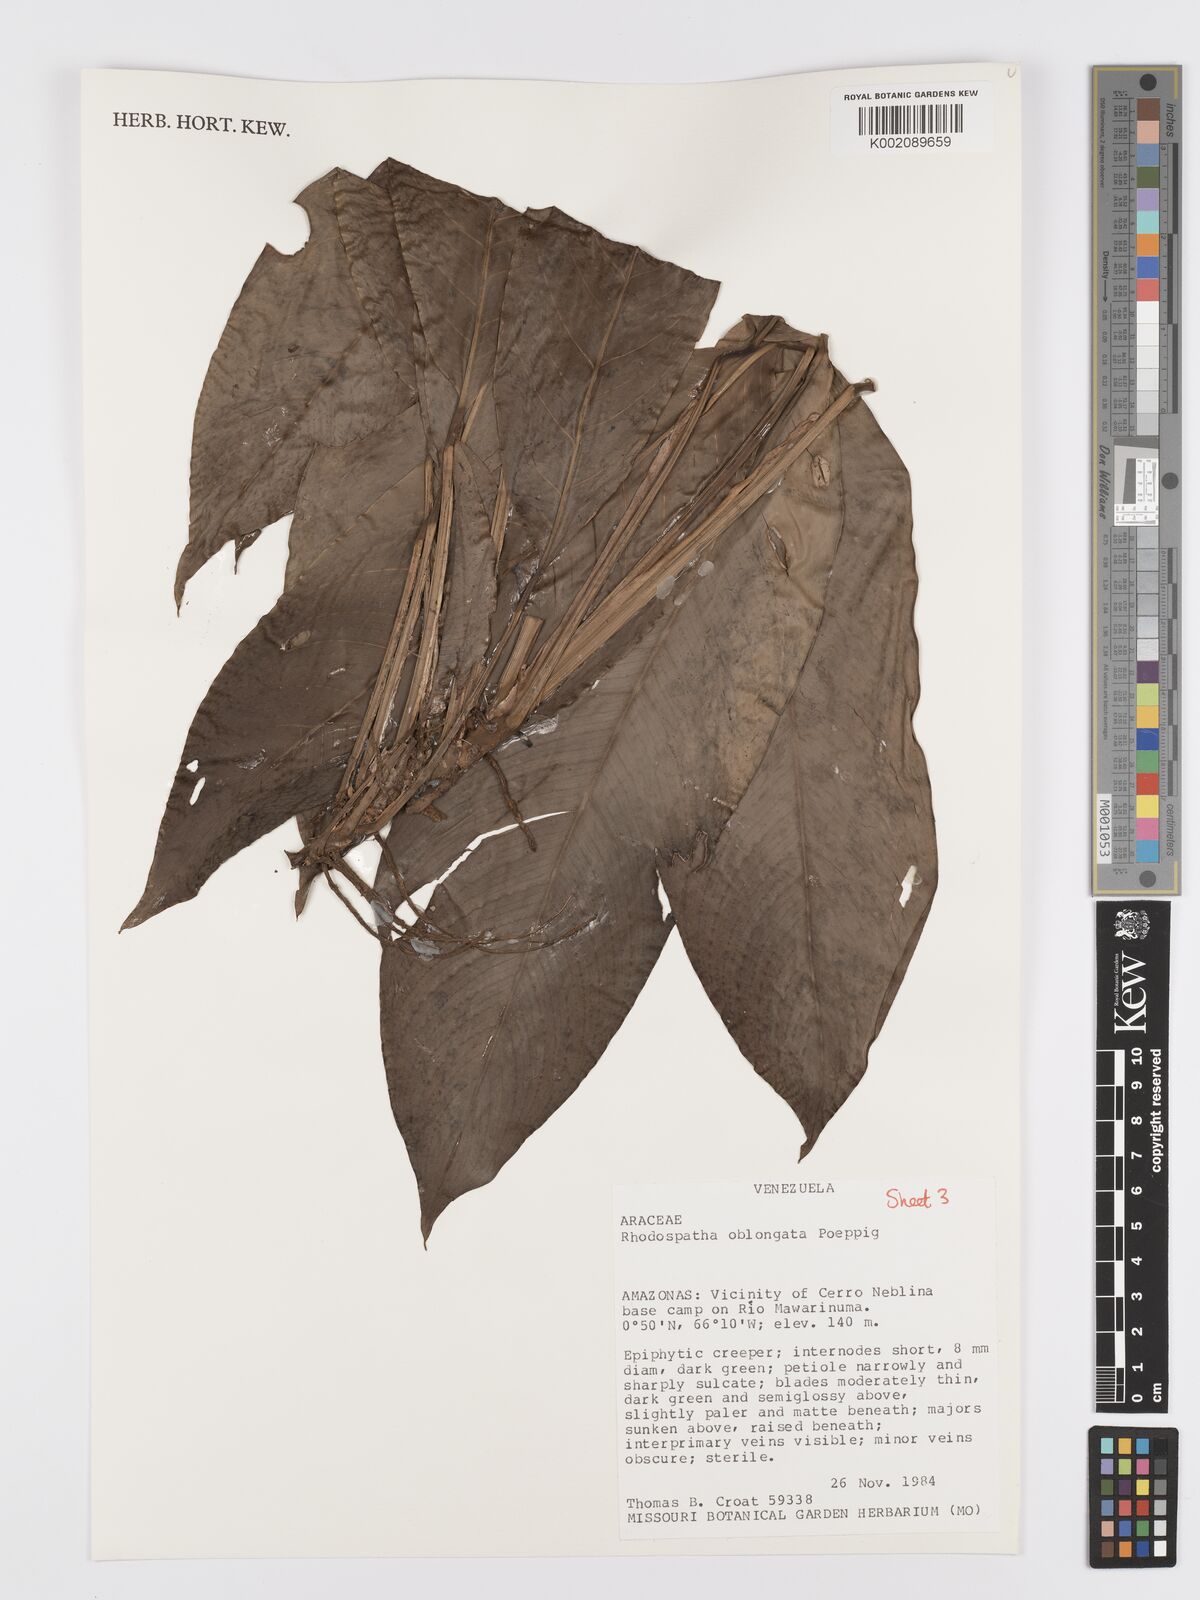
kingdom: Plantae
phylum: Tracheophyta
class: Liliopsida
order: Alismatales
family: Araceae
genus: Rhodospatha
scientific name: Rhodospatha oblongata
